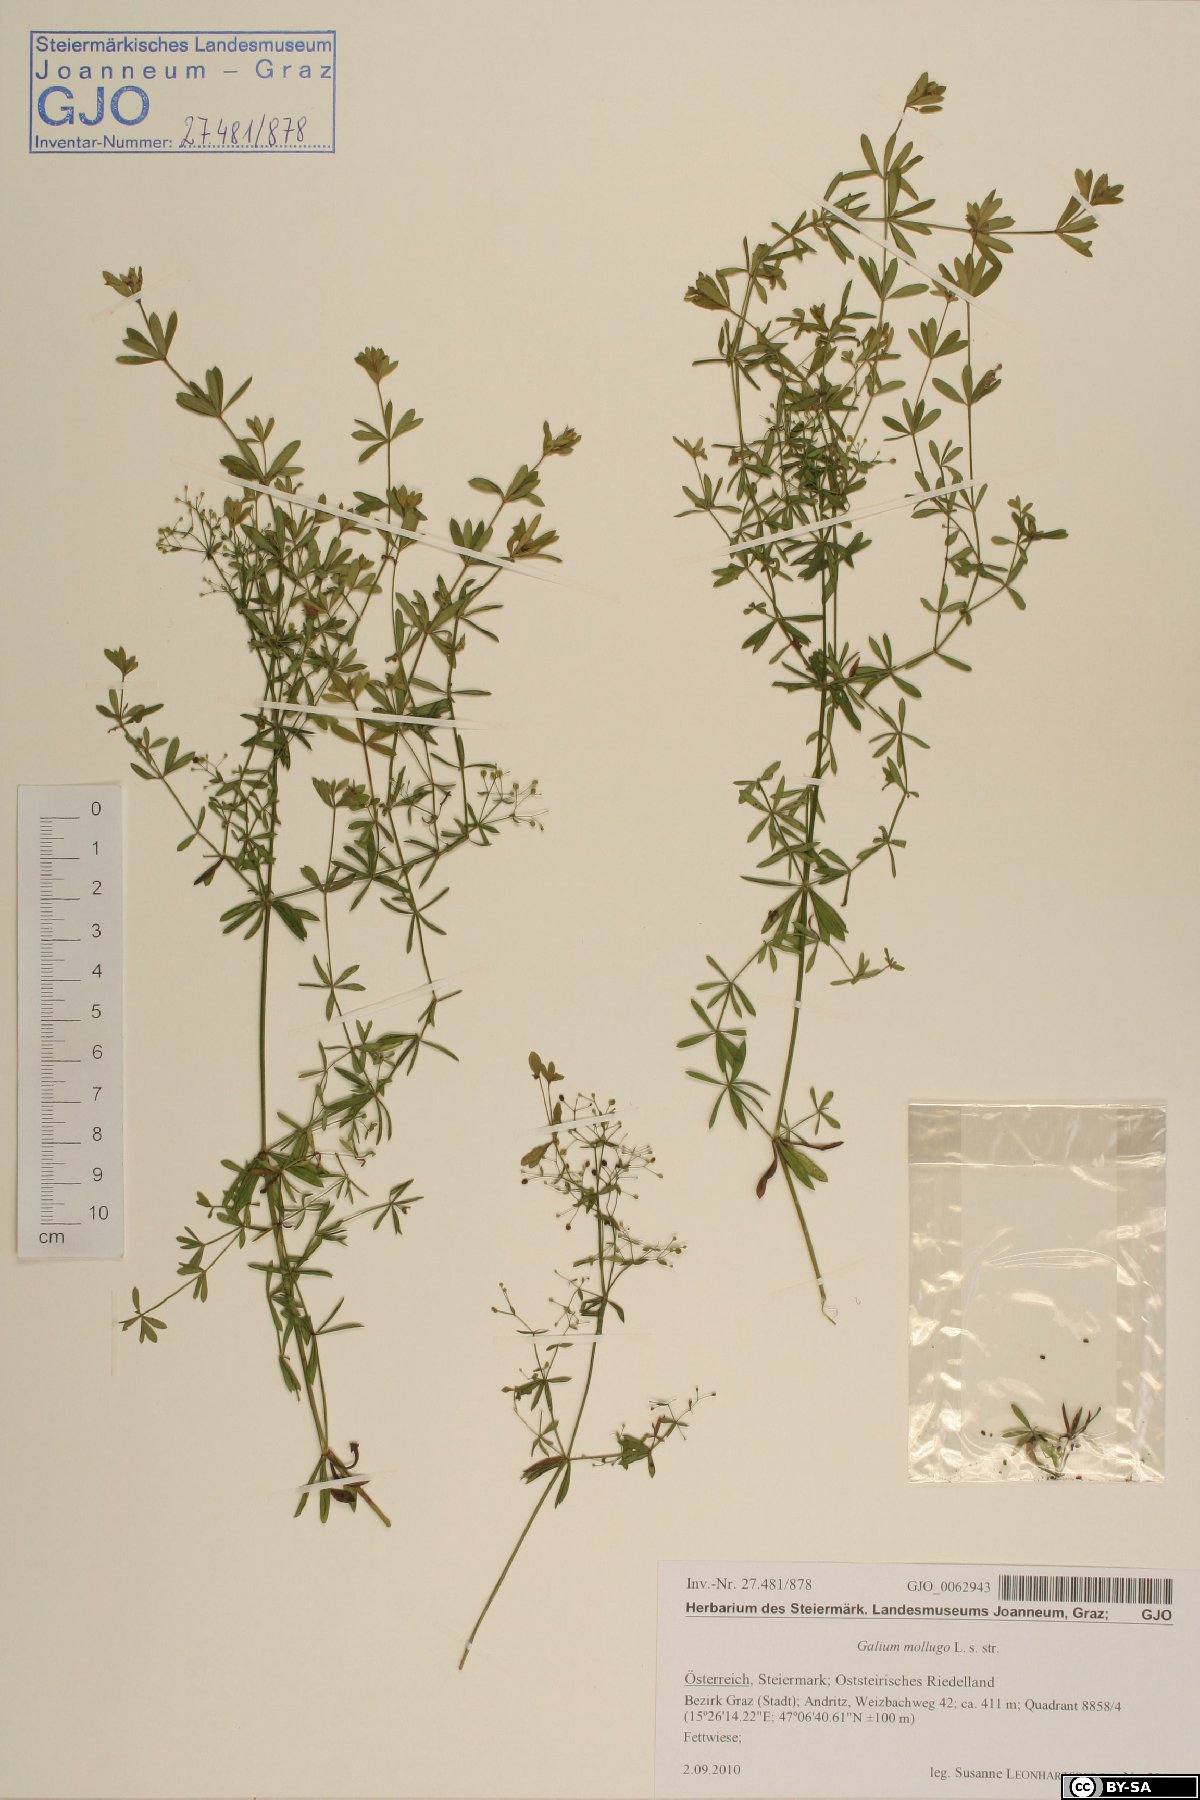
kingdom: Plantae
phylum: Tracheophyta
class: Magnoliopsida
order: Gentianales
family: Rubiaceae
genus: Galium
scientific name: Galium mollugo
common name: Hedge bedstraw
